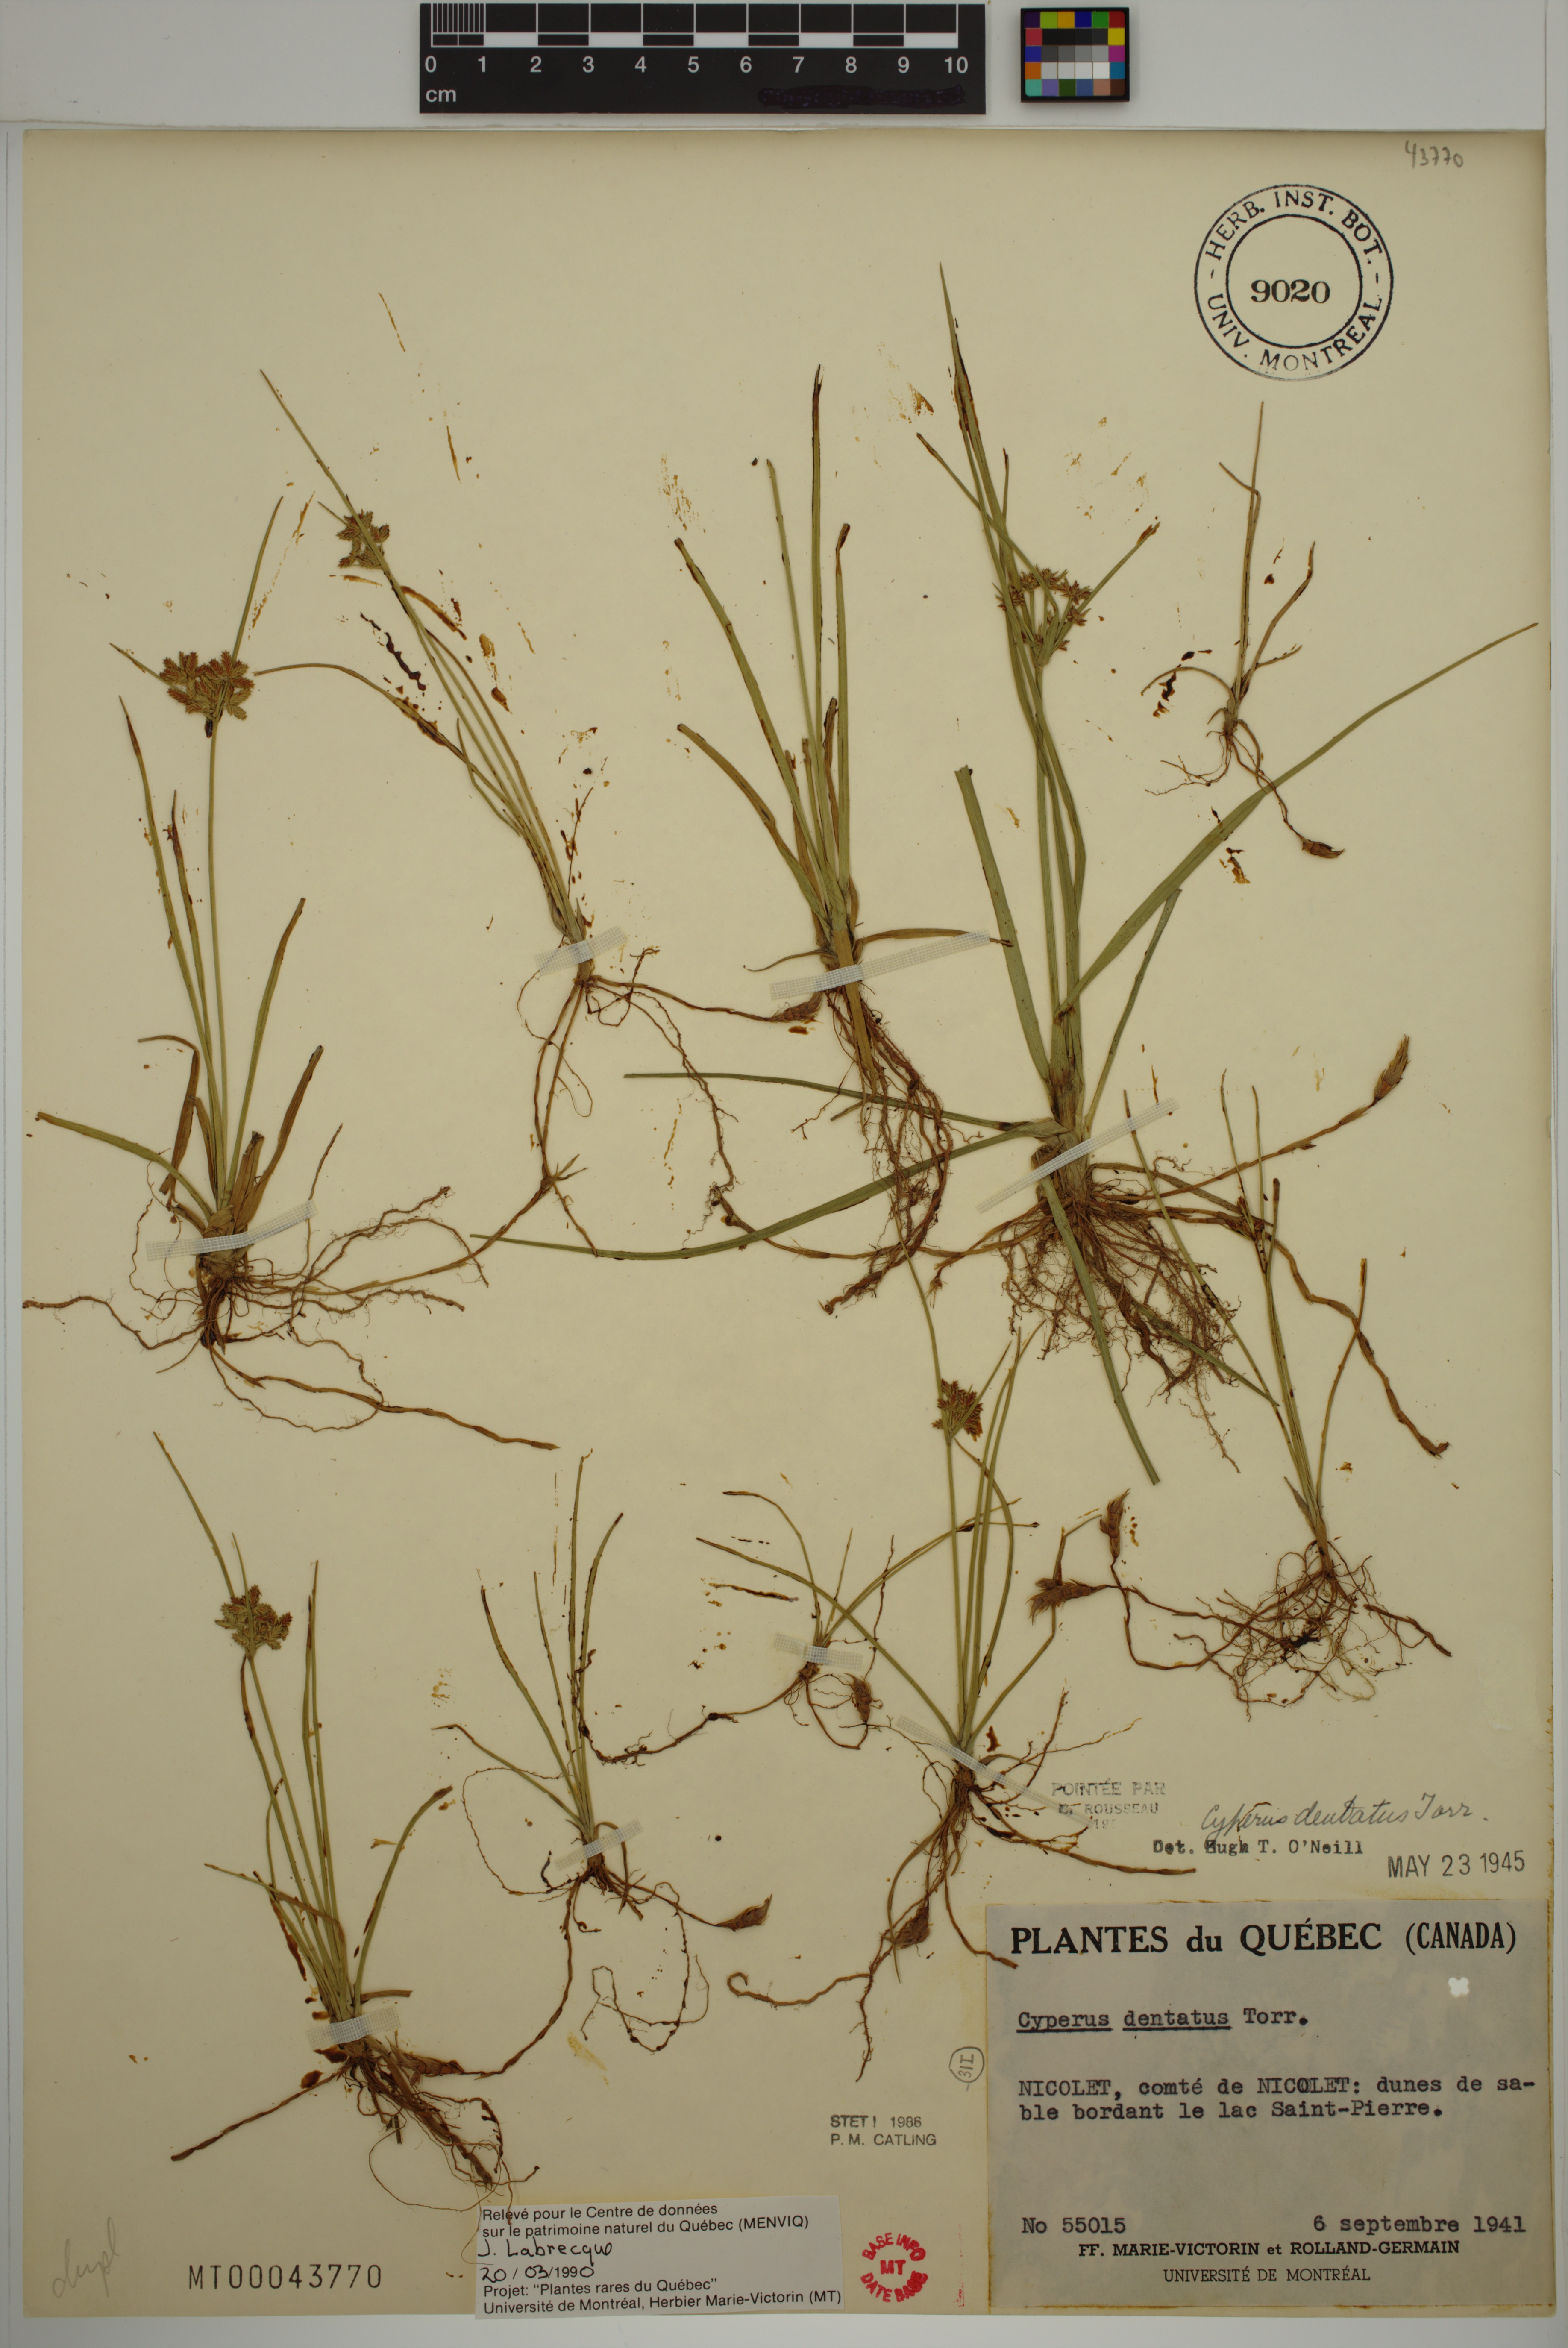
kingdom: Plantae
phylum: Tracheophyta
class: Liliopsida
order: Poales
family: Cyperaceae
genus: Cyperus
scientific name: Cyperus dentatus
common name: Dentate umbrella sedge
